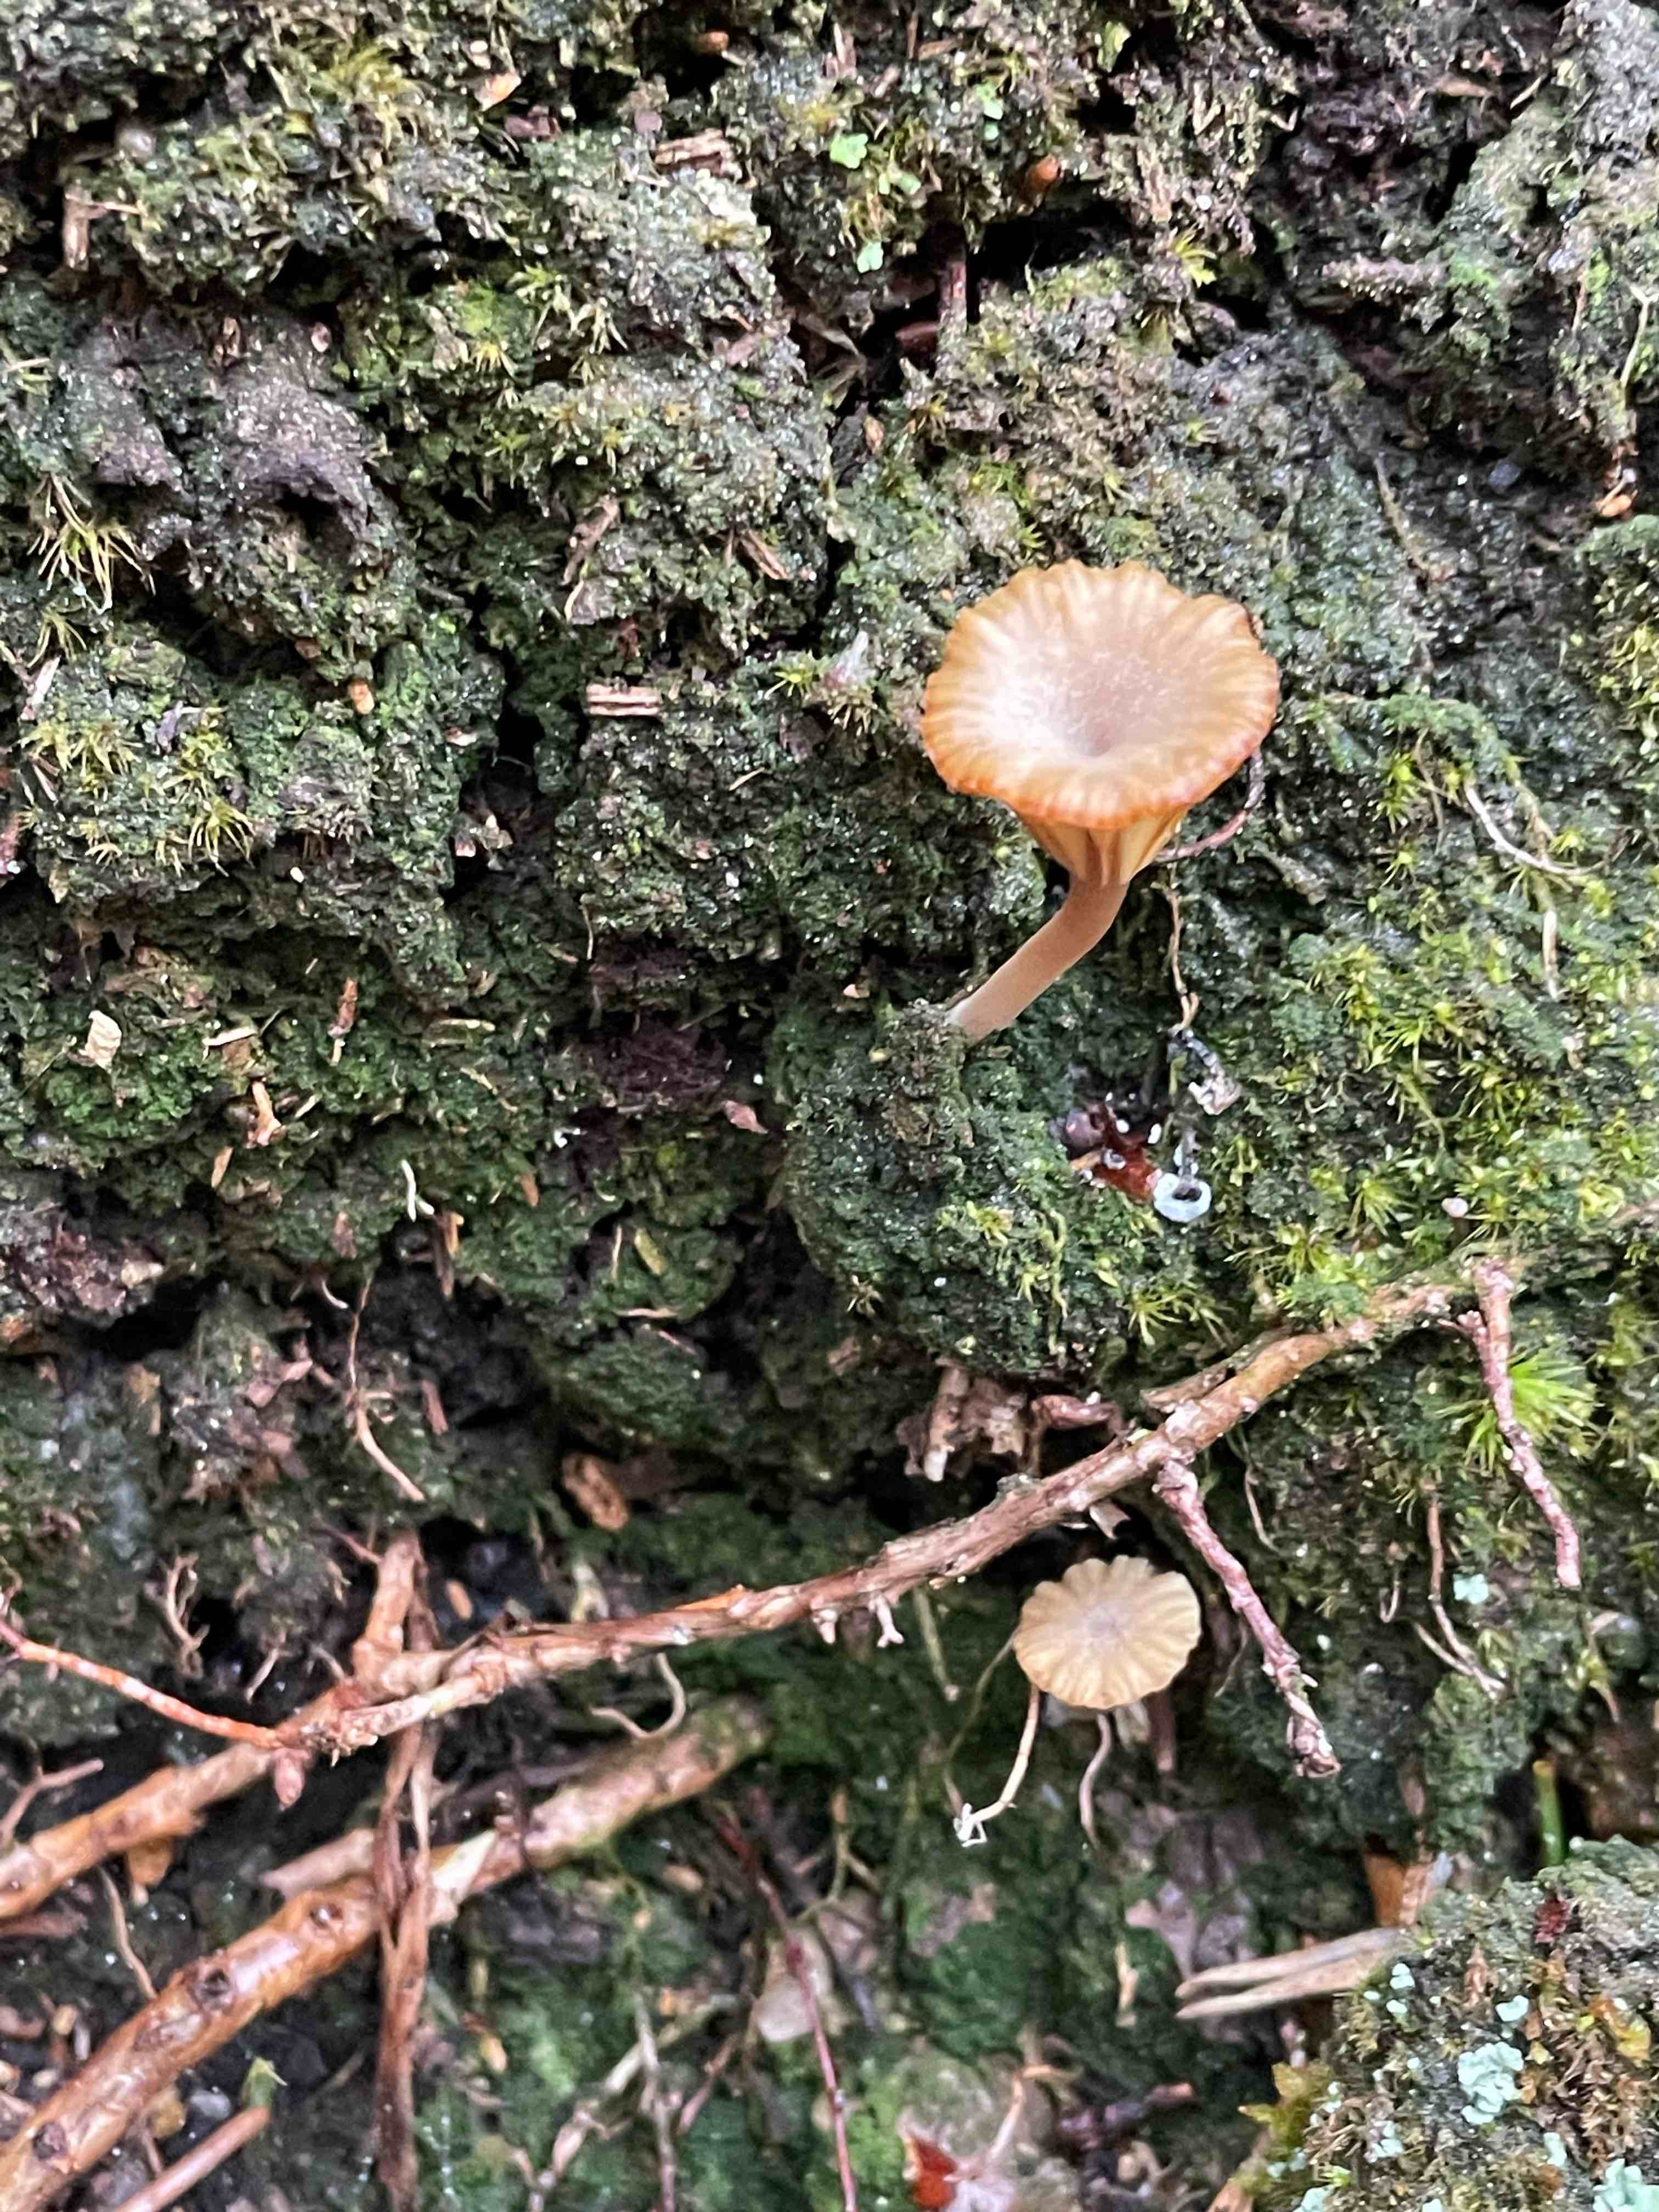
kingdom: Fungi
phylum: Basidiomycota
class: Agaricomycetes
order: Agaricales
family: Hygrophoraceae
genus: Lichenomphalia
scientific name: Lichenomphalia umbellifera
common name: tørve-lavhat
